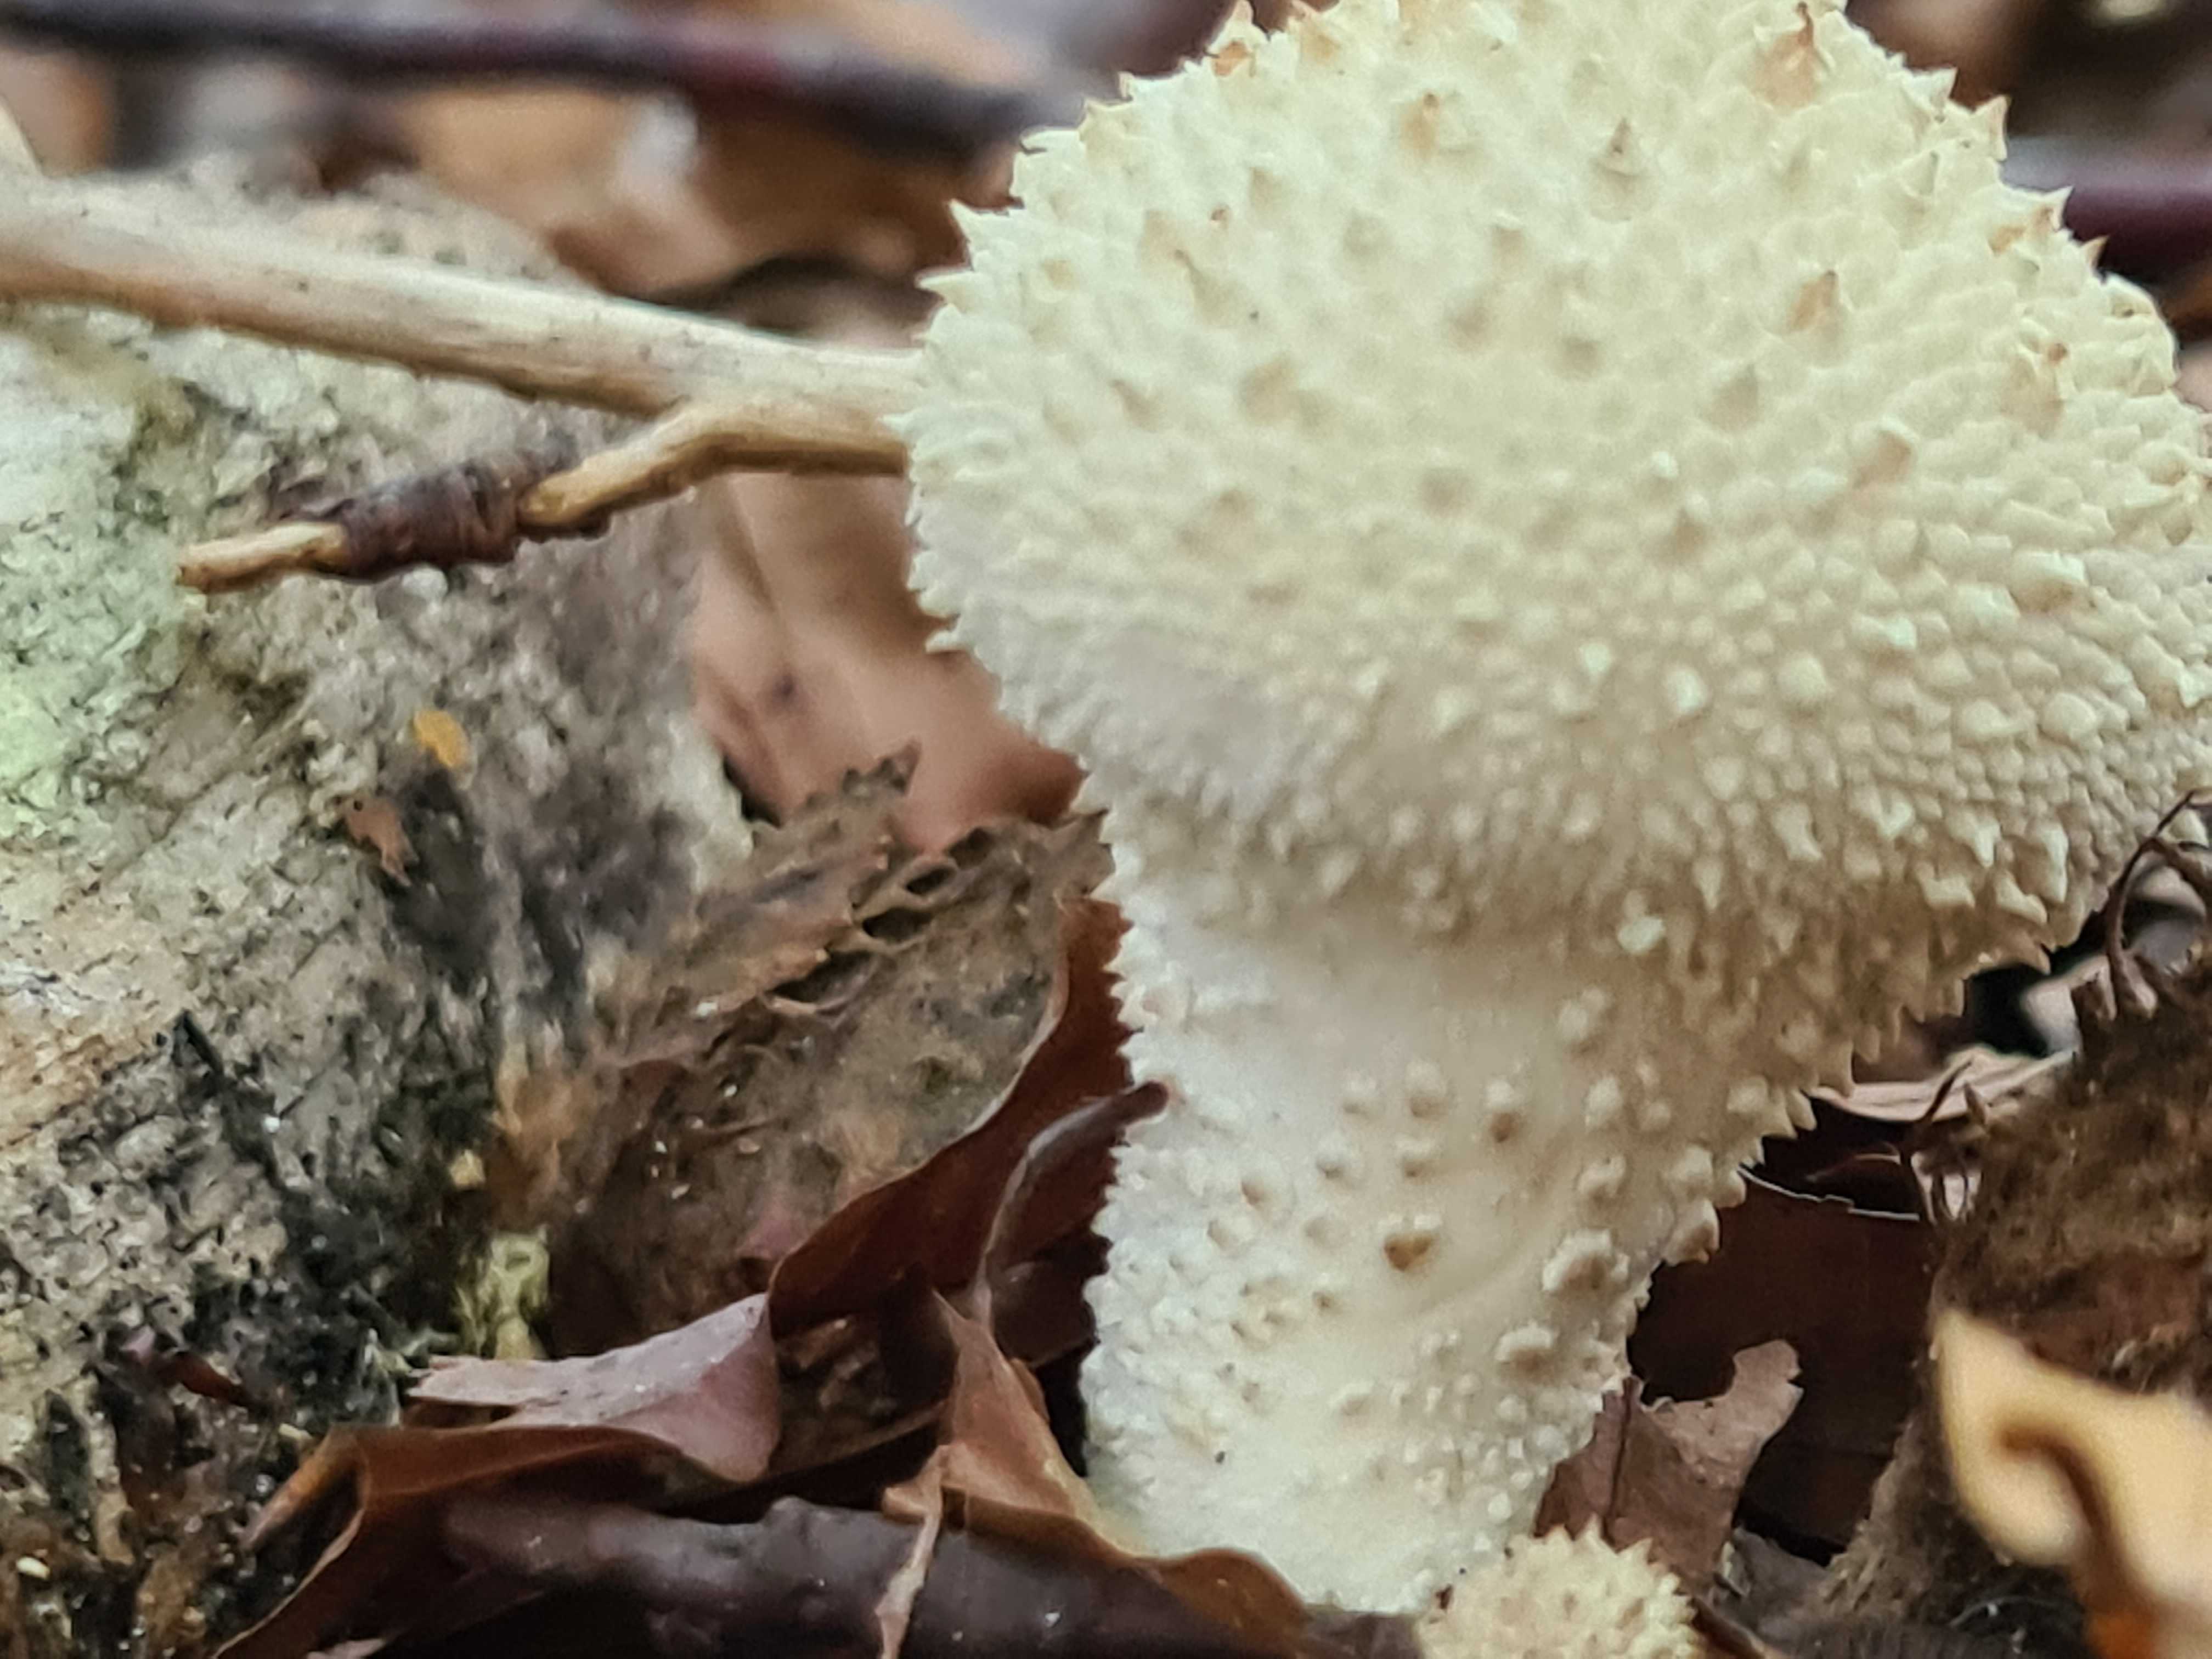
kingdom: Fungi
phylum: Basidiomycota
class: Agaricomycetes
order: Agaricales
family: Lycoperdaceae
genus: Lycoperdon
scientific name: Lycoperdon perlatum
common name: krystal-støvbold
